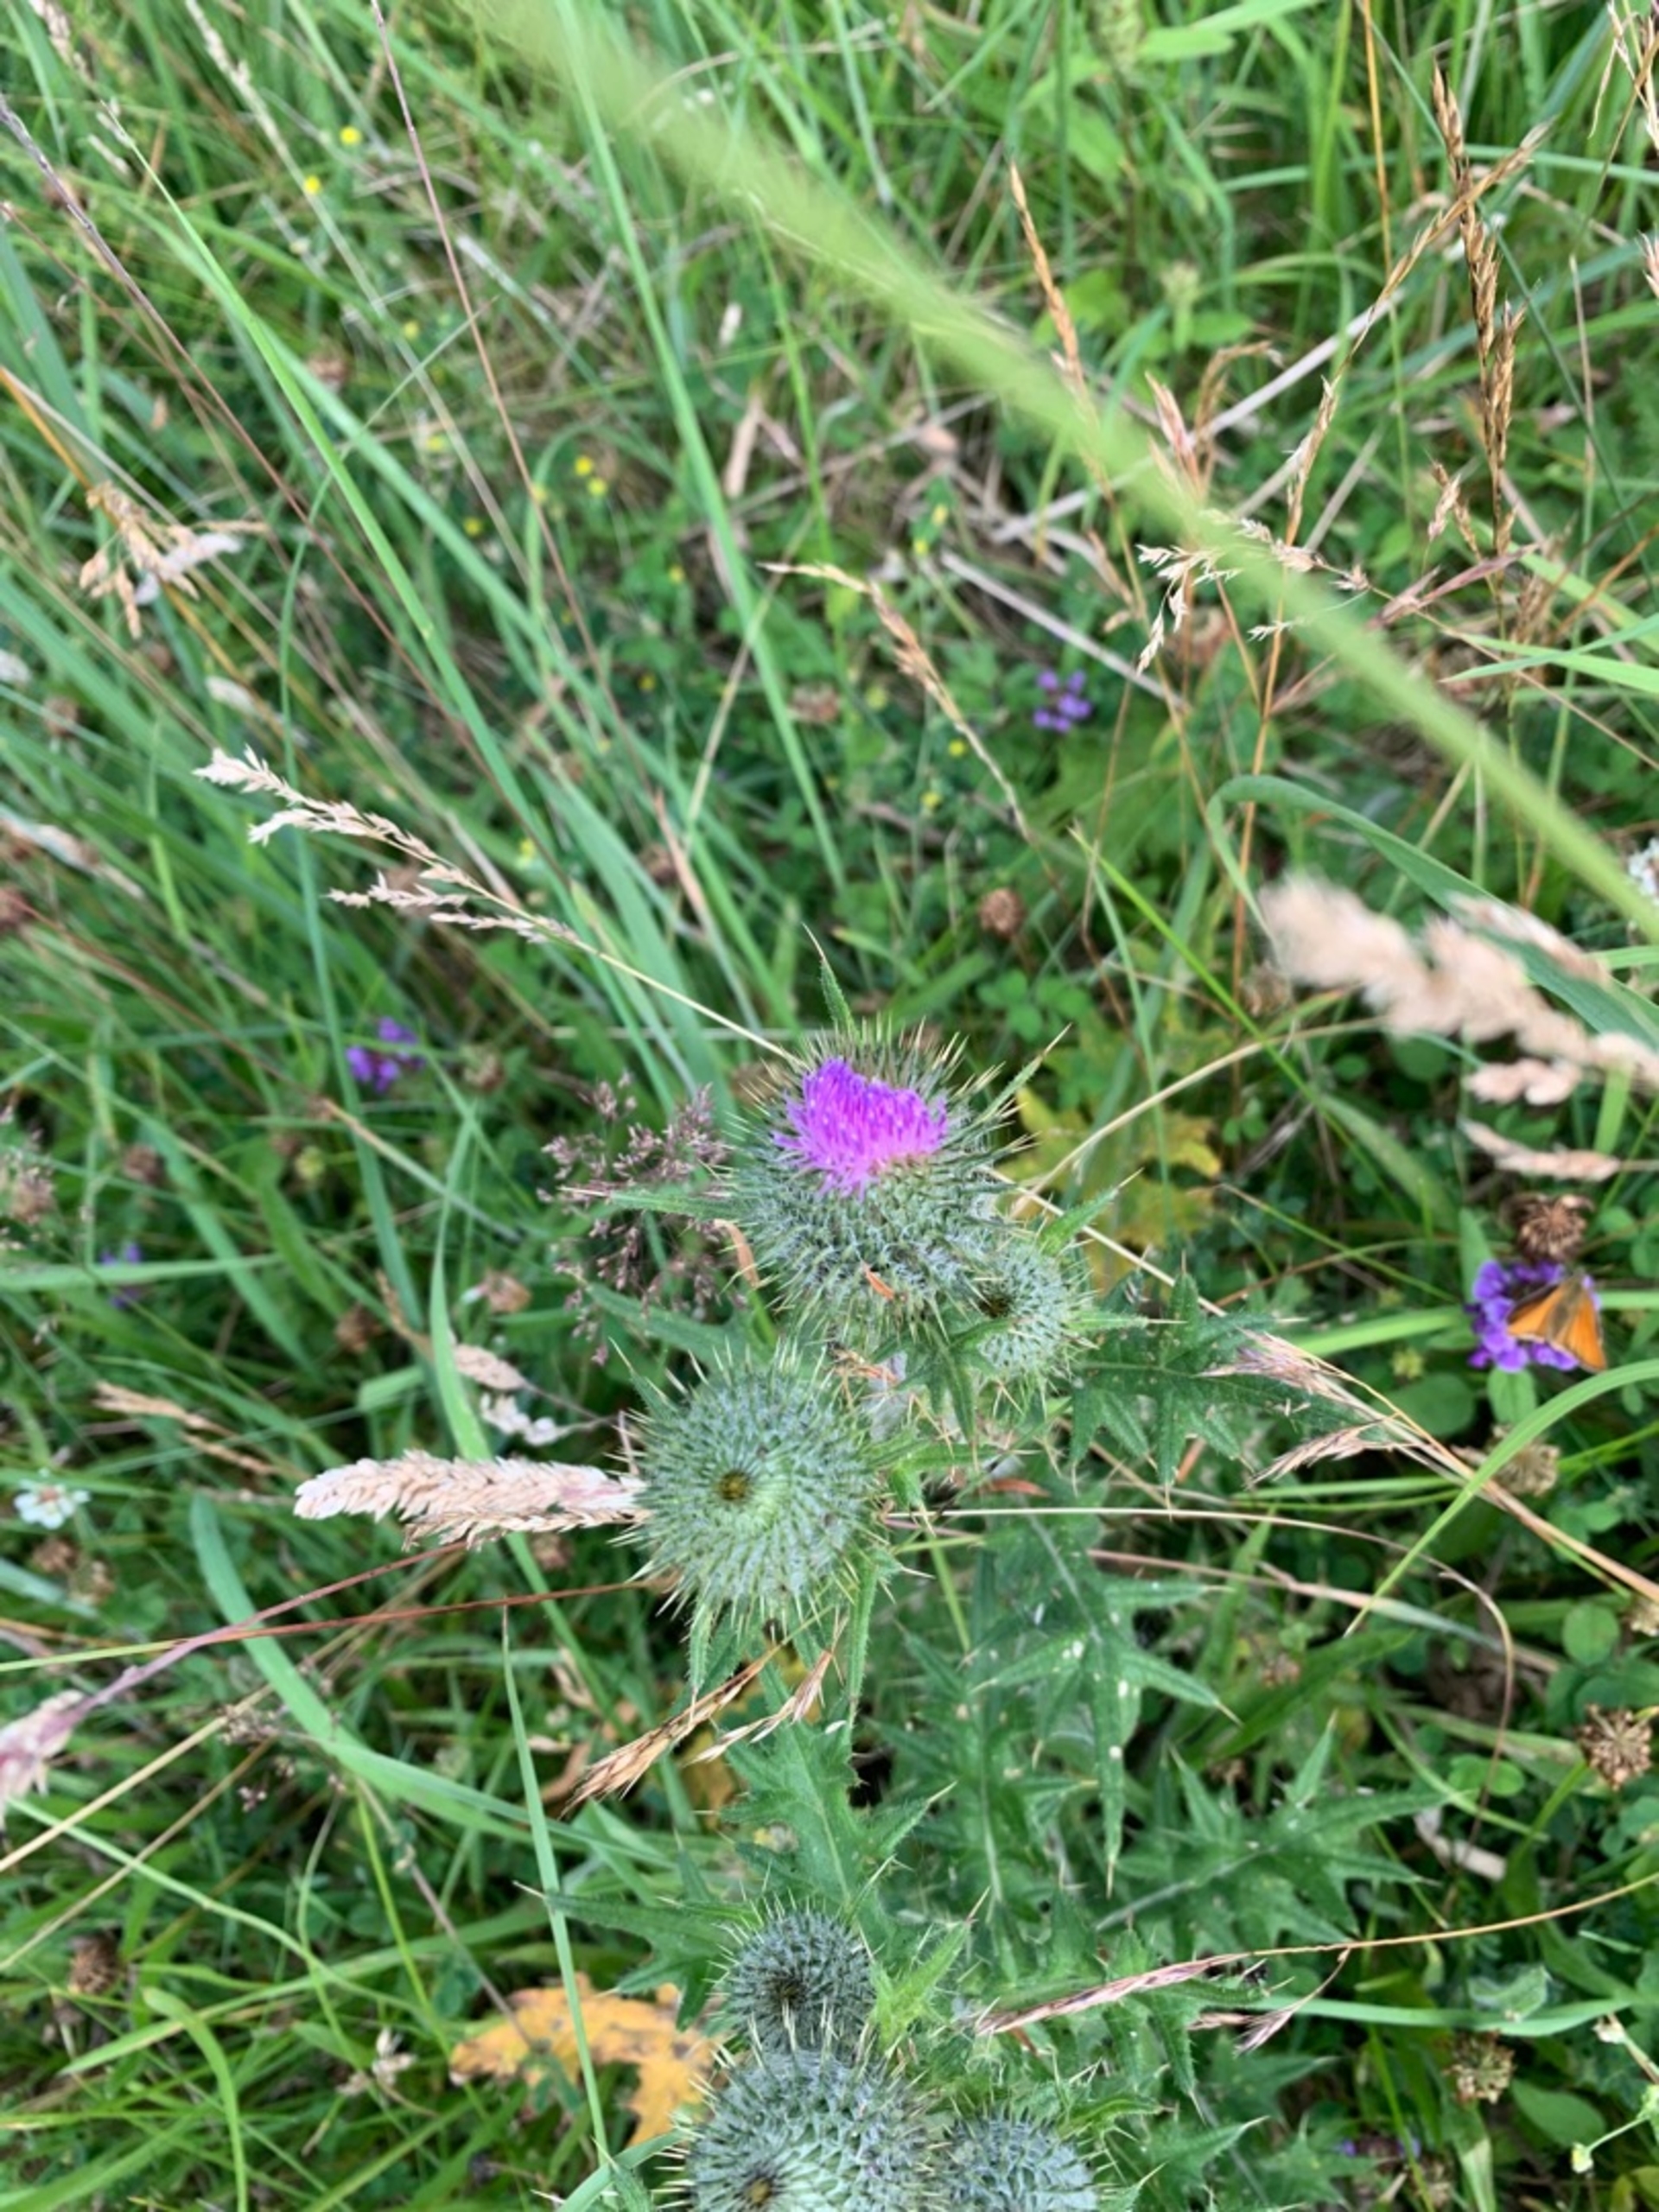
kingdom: Plantae
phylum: Tracheophyta
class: Magnoliopsida
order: Asterales
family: Asteraceae
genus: Cirsium
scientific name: Cirsium vulgare
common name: Horse-tidsel
